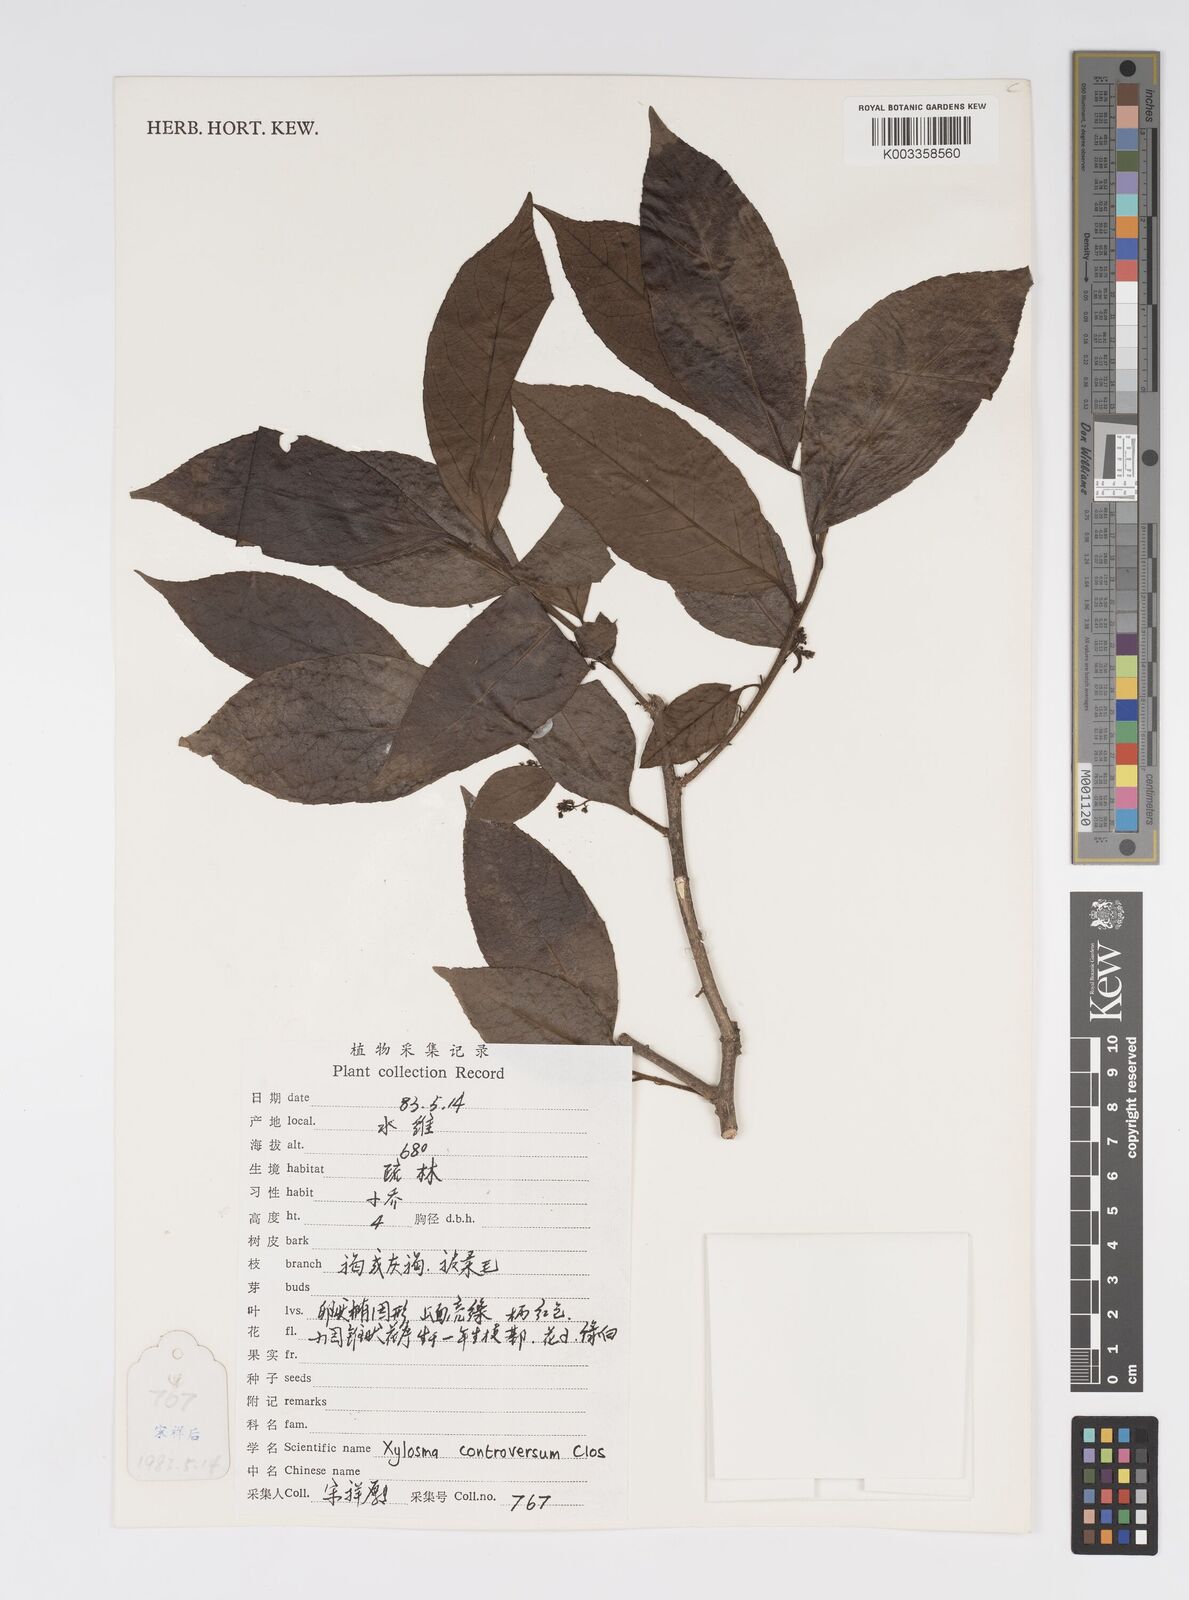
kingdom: Plantae
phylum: Tracheophyta
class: Magnoliopsida
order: Malpighiales
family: Salicaceae
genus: Xylosma
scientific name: Xylosma controversa
